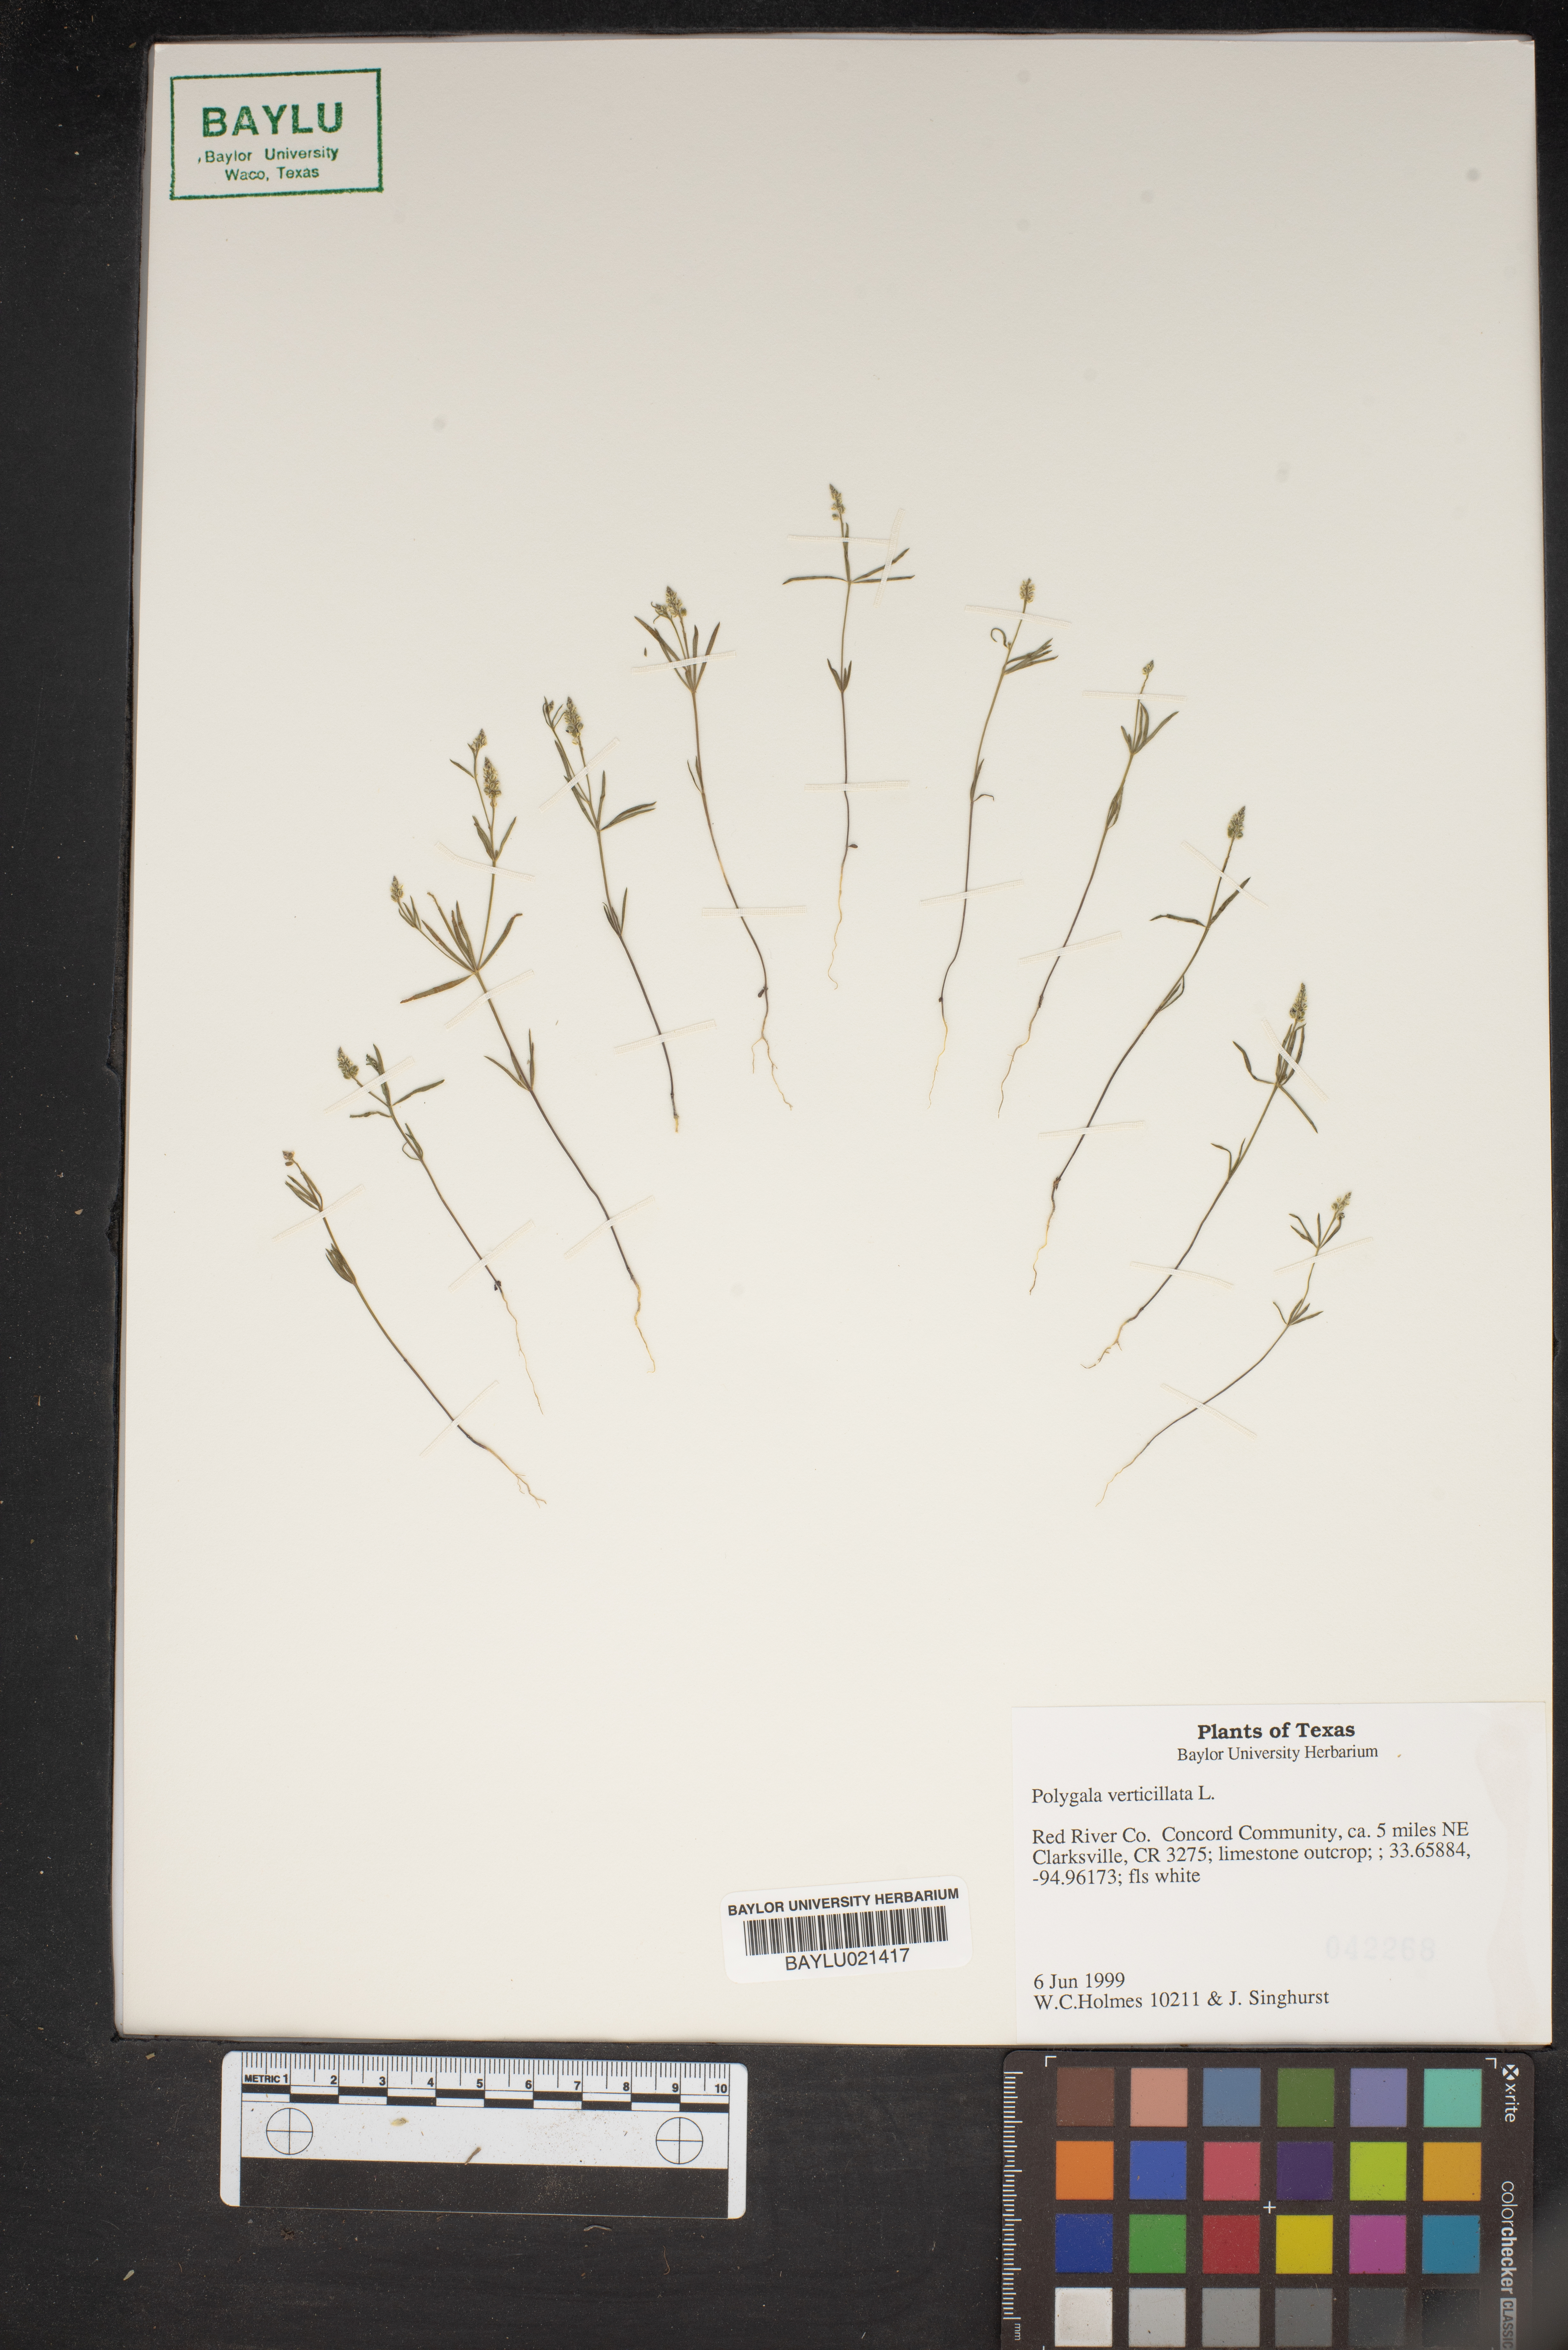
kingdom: Plantae
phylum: Tracheophyta
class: Magnoliopsida
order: Fabales
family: Polygalaceae
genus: Polygala
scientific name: Polygala verticillata
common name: Whorl milkwort
